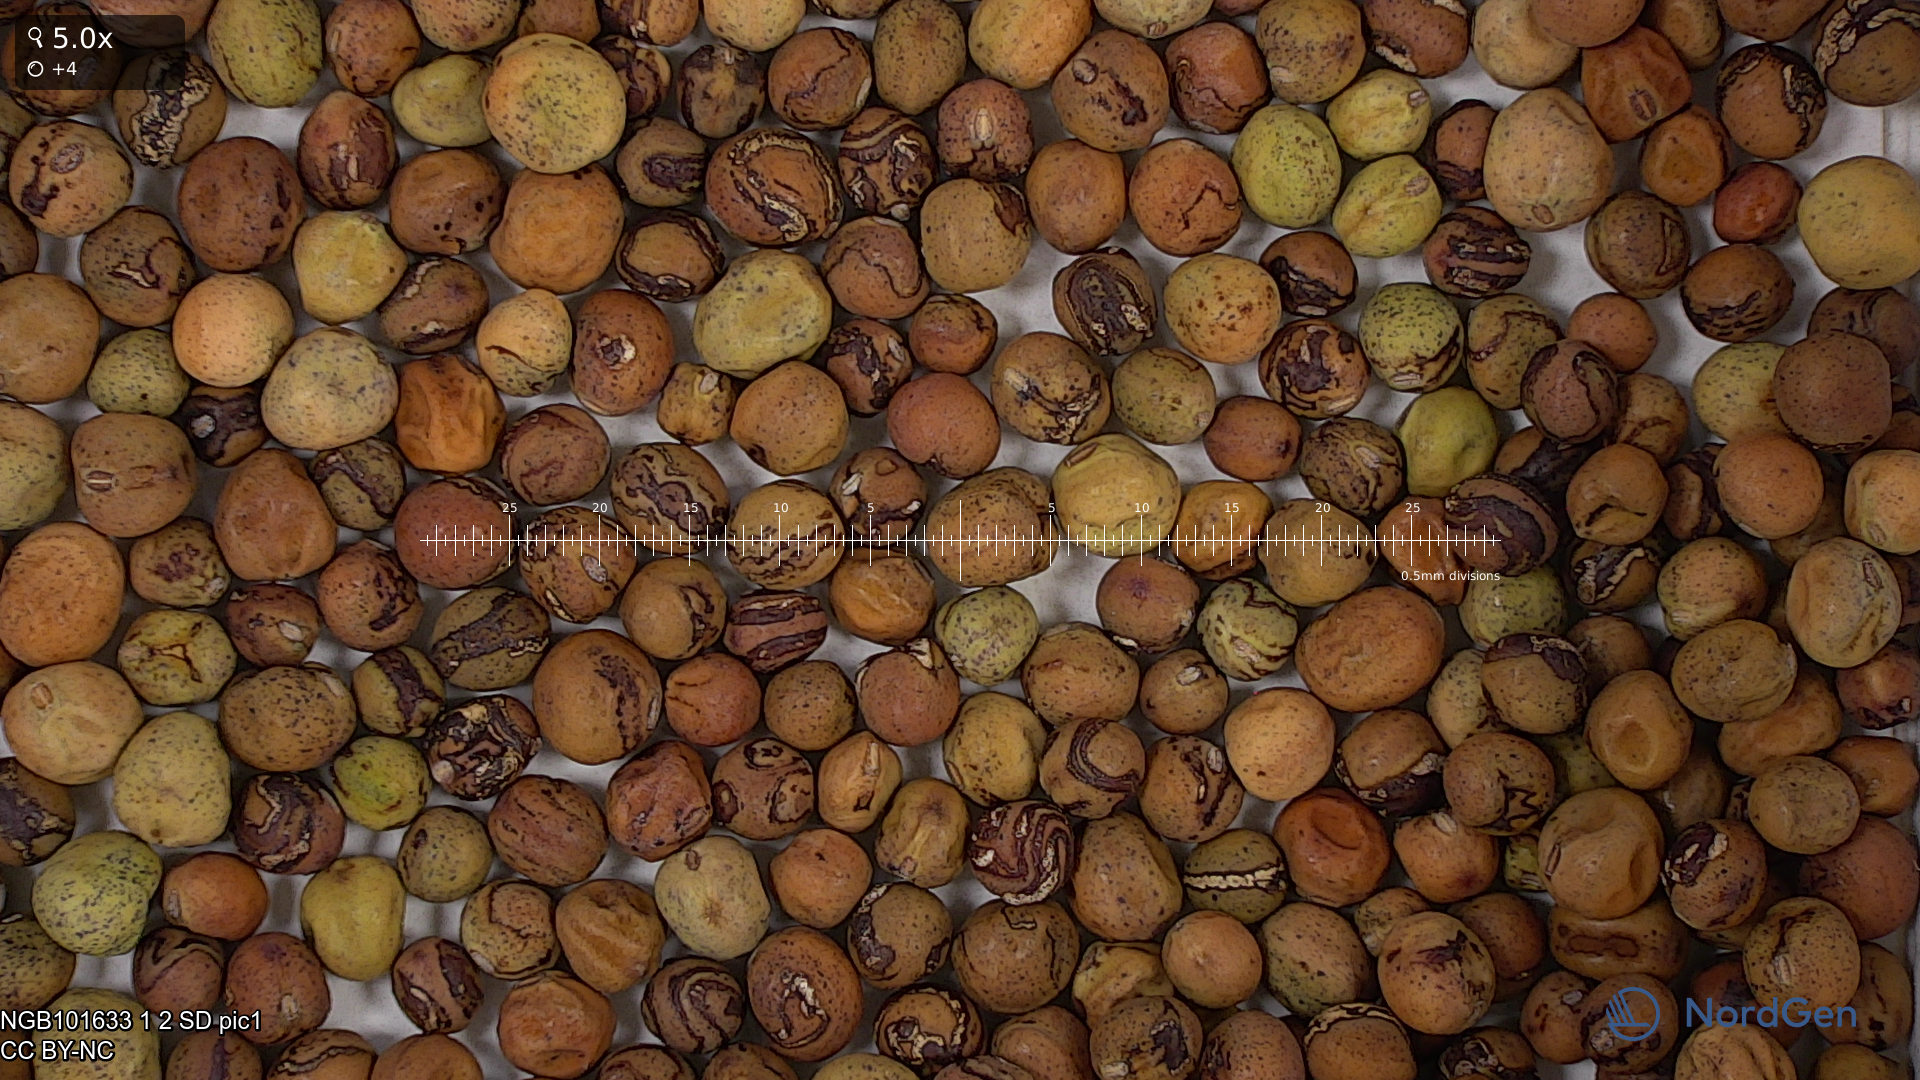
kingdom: Plantae
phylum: Tracheophyta
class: Magnoliopsida
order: Fabales
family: Fabaceae
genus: Lathyrus
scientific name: Lathyrus oleraceus
